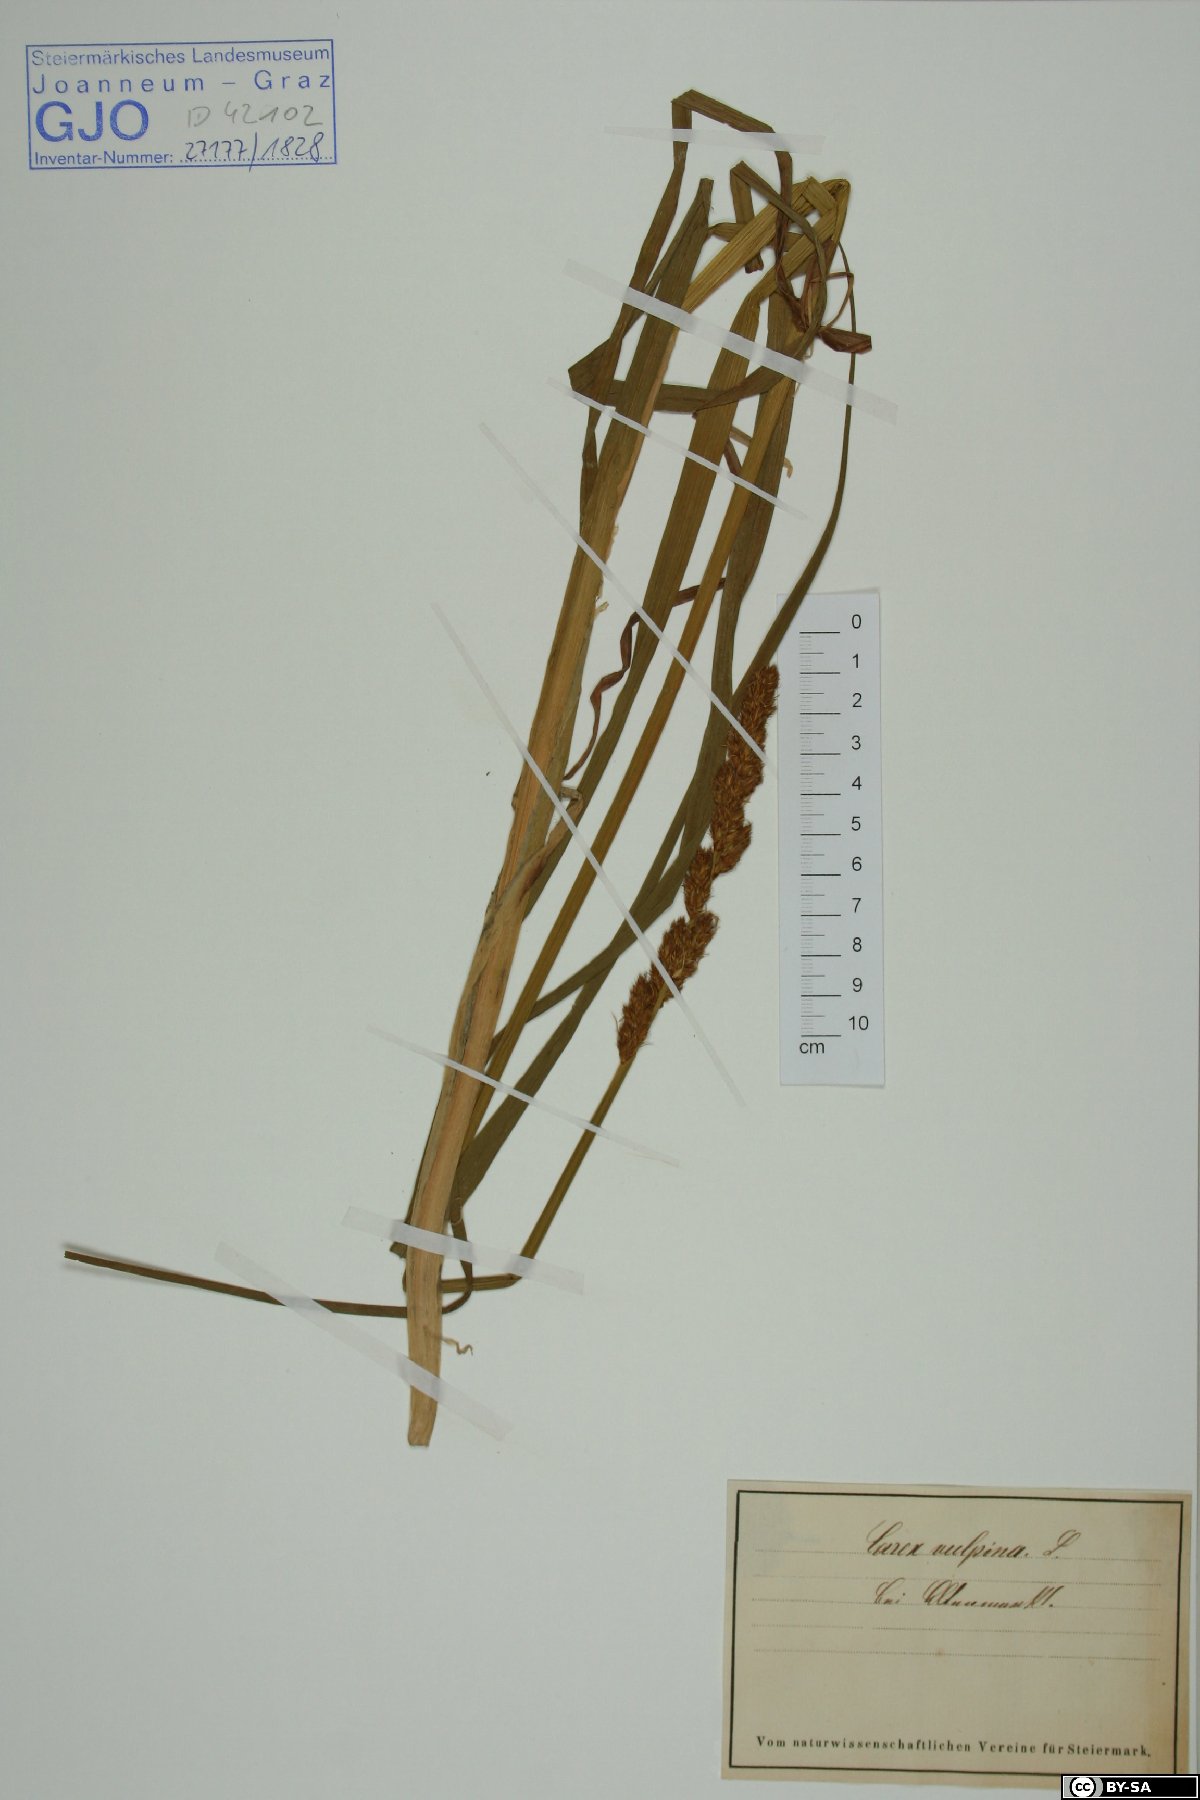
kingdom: Plantae
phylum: Tracheophyta
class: Liliopsida
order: Poales
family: Cyperaceae
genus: Carex
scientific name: Carex vulpina
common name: True fox-sedge
